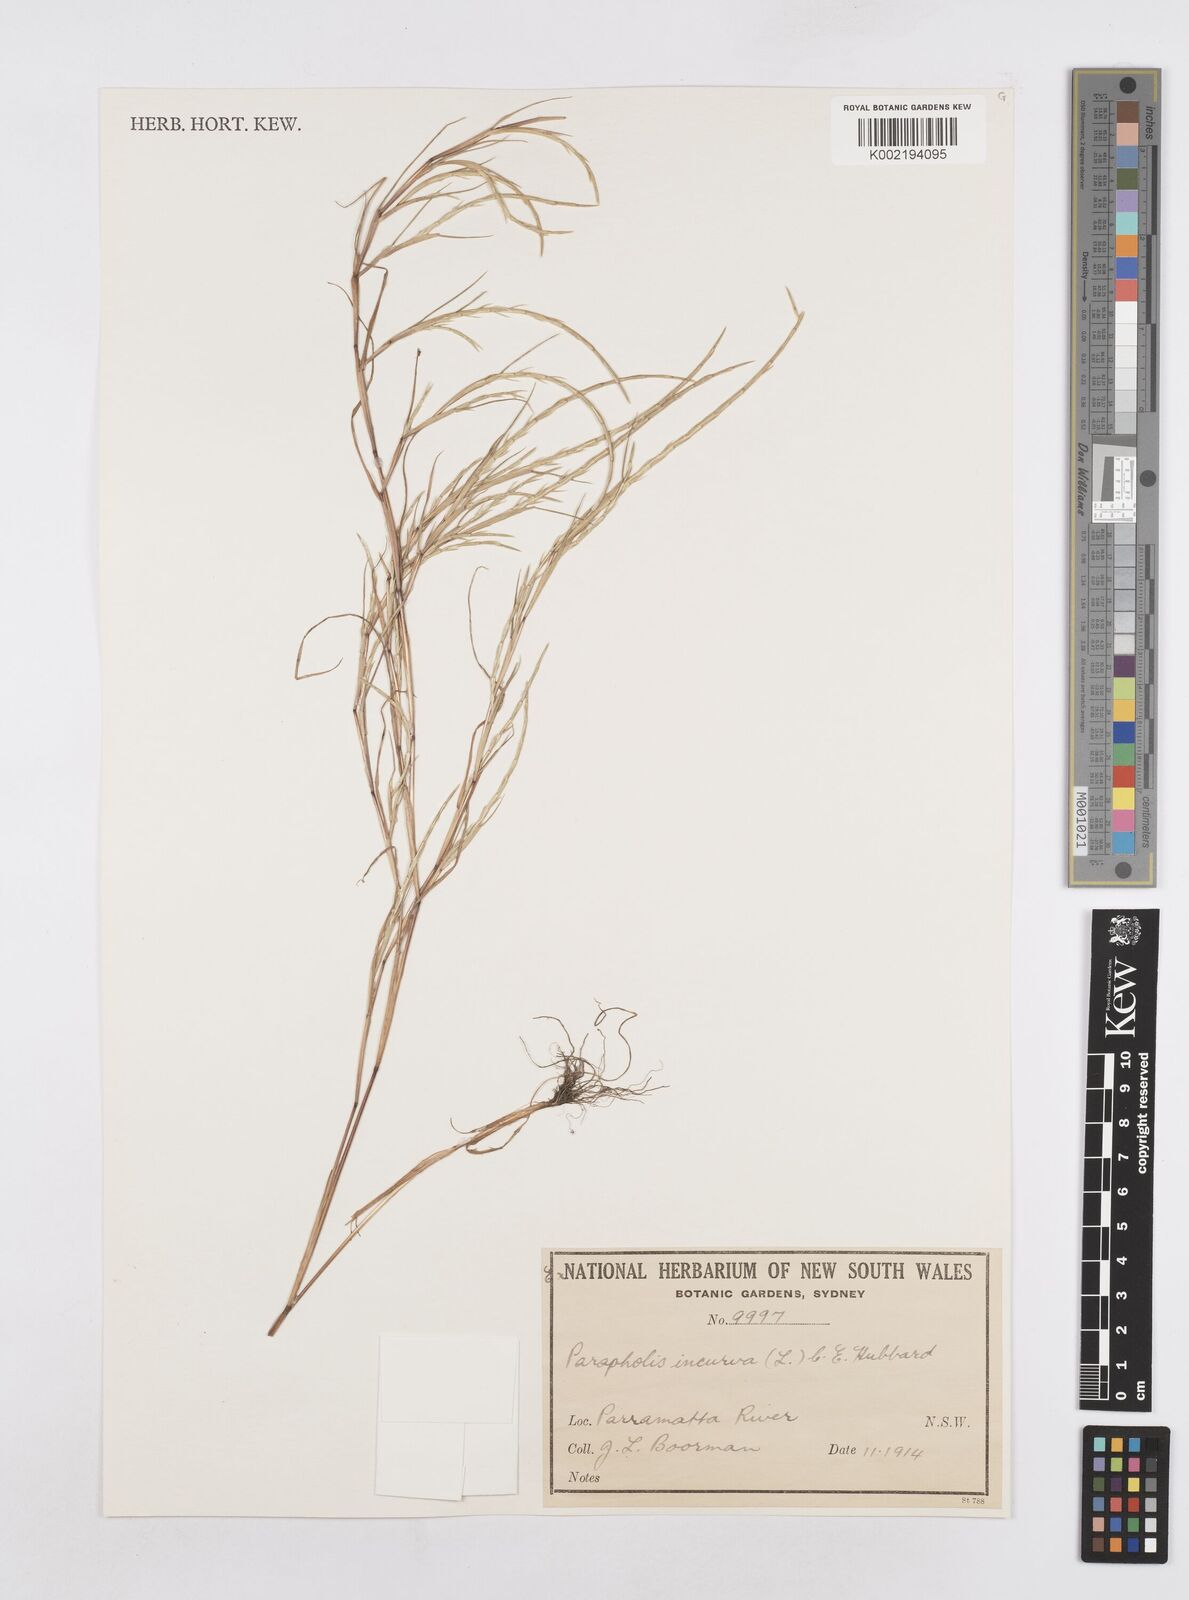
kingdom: Plantae
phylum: Tracheophyta
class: Liliopsida
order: Poales
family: Poaceae
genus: Parapholis
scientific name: Parapholis strigosa
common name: Hard-grass
